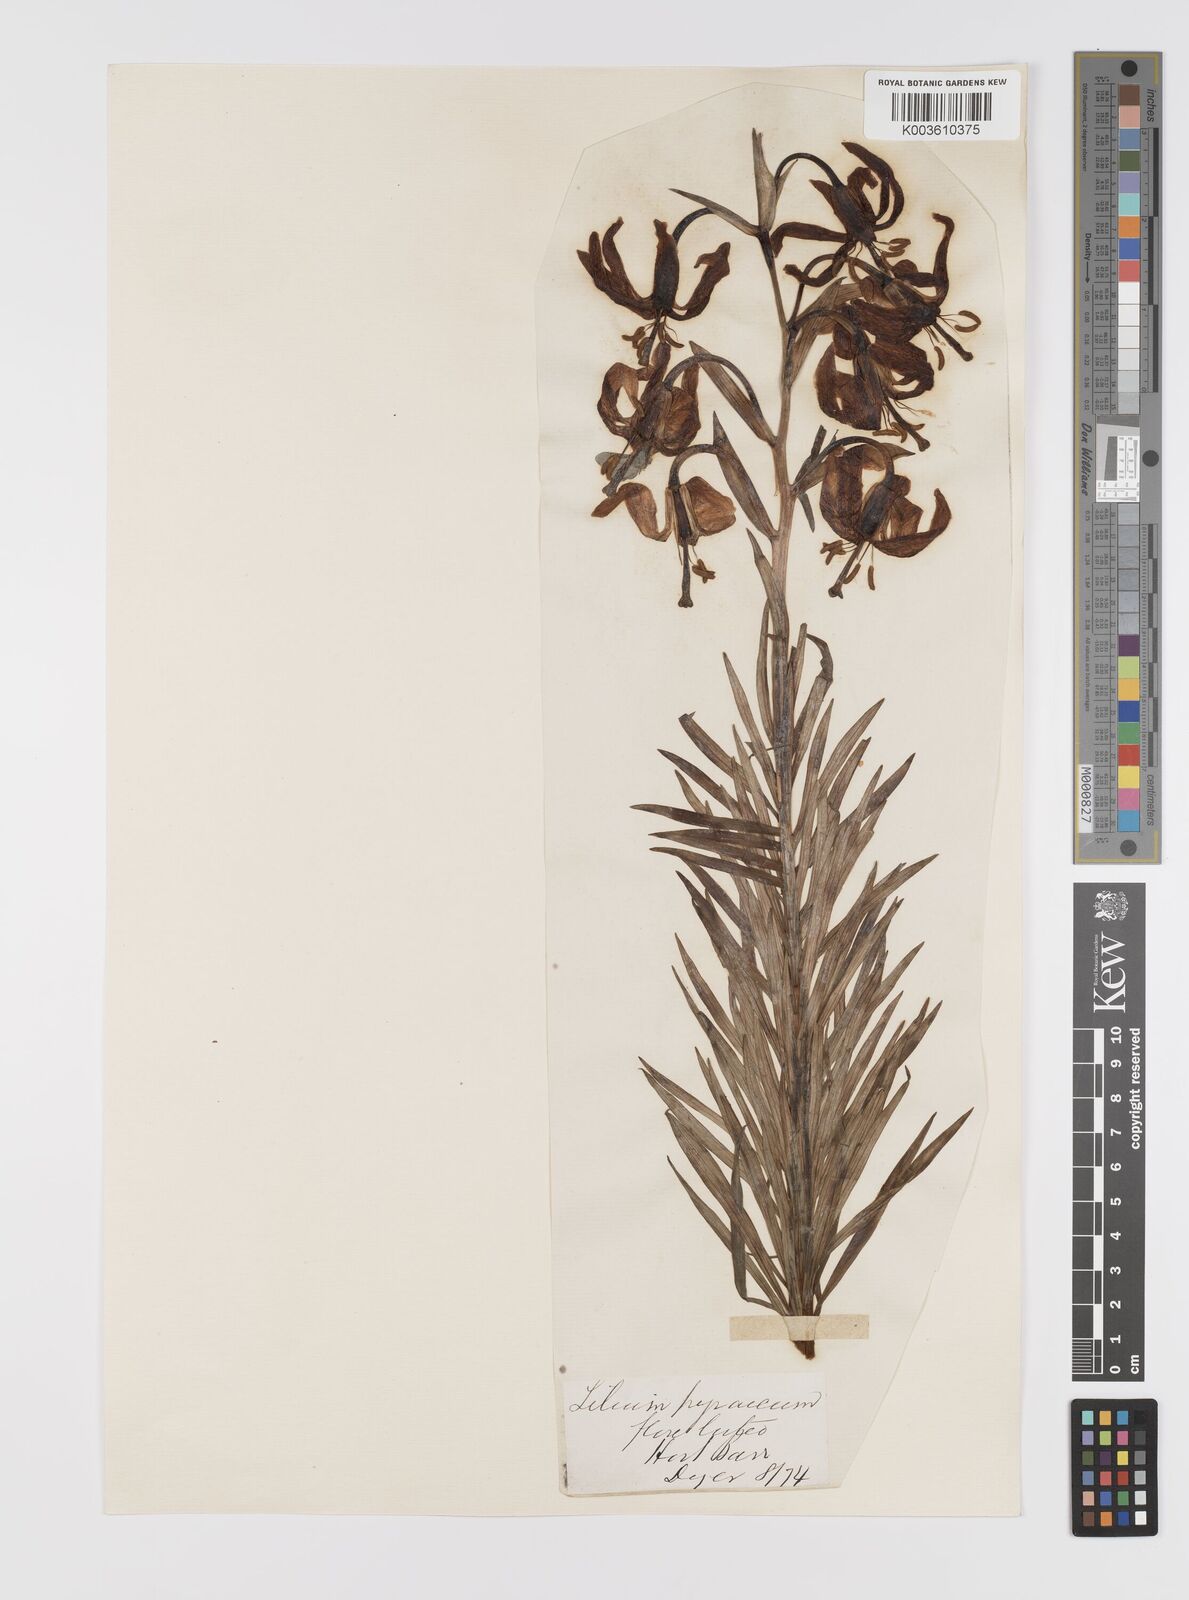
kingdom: Plantae
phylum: Tracheophyta
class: Liliopsida
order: Liliales
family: Liliaceae
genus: Lilium
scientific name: Lilium pyrenaicum
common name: Pyrenean lily
